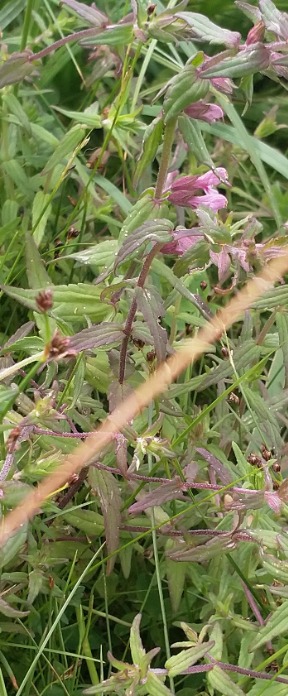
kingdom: Plantae
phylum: Tracheophyta
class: Magnoliopsida
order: Lamiales
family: Orobanchaceae
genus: Odontites
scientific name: Odontites
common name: Rødtopslægten
